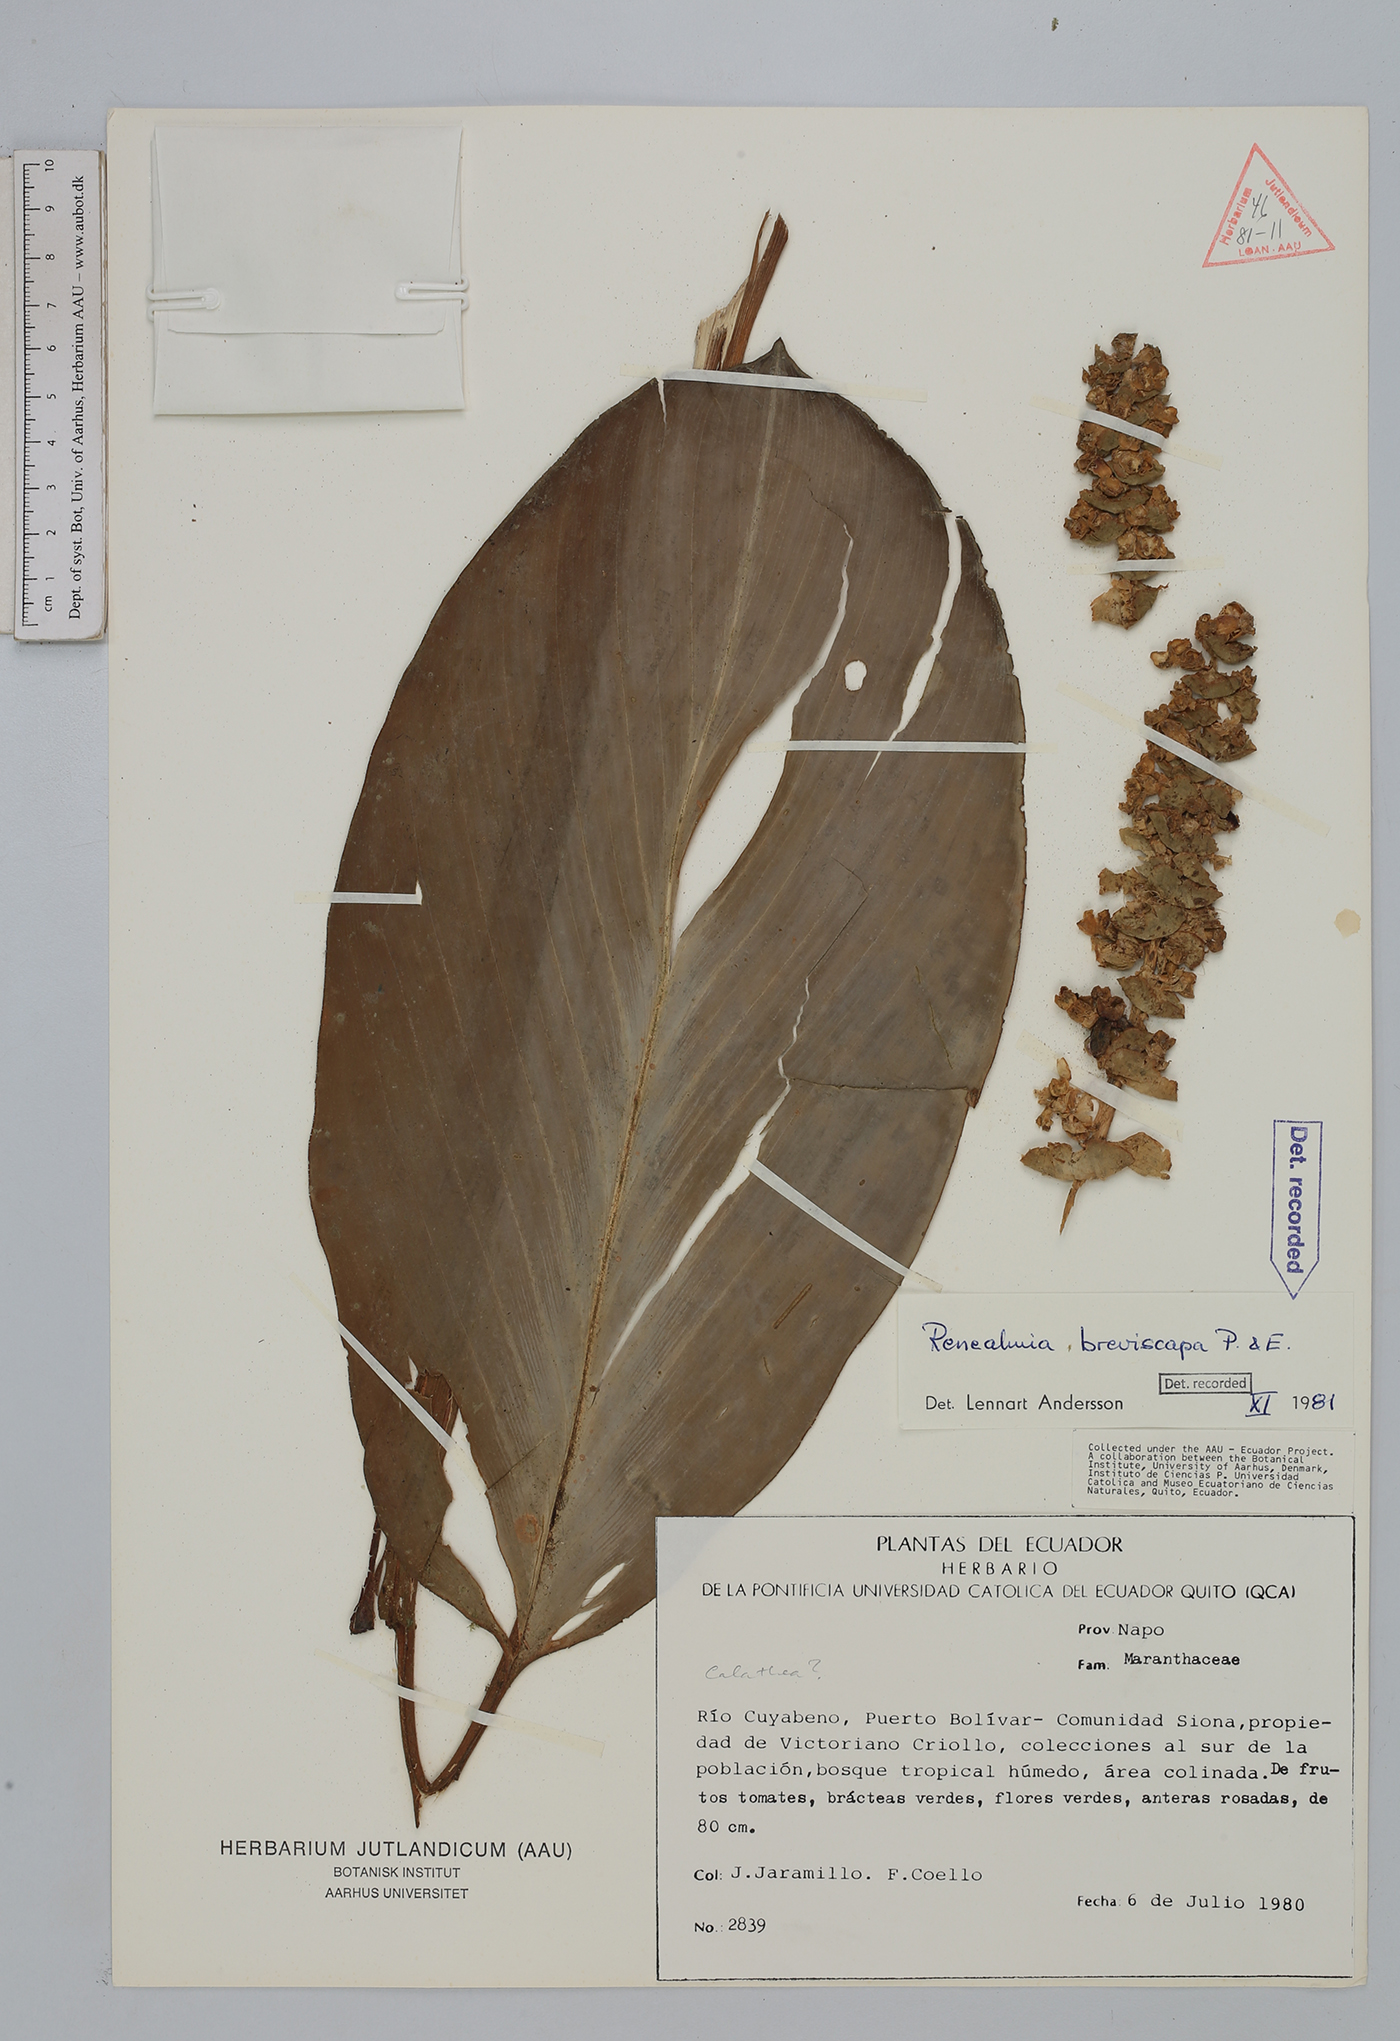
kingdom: Plantae
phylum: Tracheophyta
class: Liliopsida
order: Zingiberales
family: Zingiberaceae
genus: Renealmia
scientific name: Renealmia breviscapa
